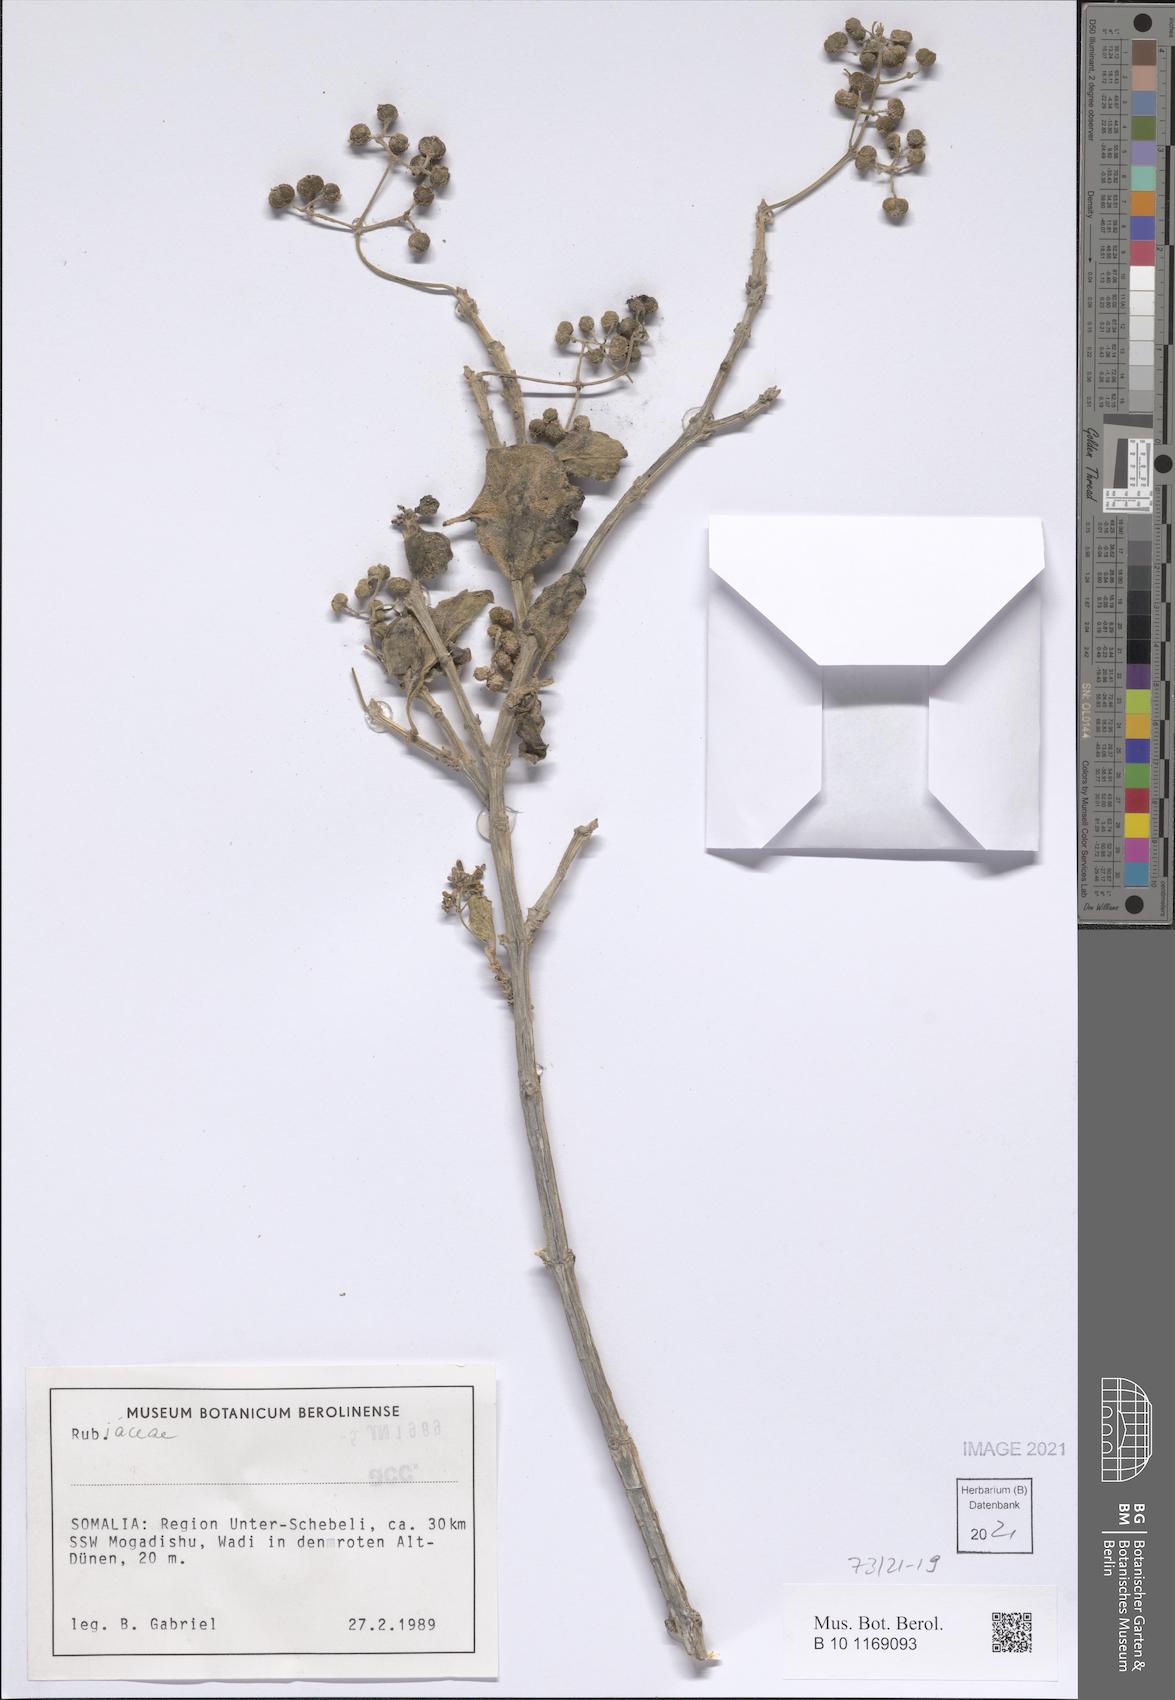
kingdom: Plantae
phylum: Tracheophyta
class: Magnoliopsida
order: Gentianales
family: Rubiaceae
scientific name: Rubiaceae
